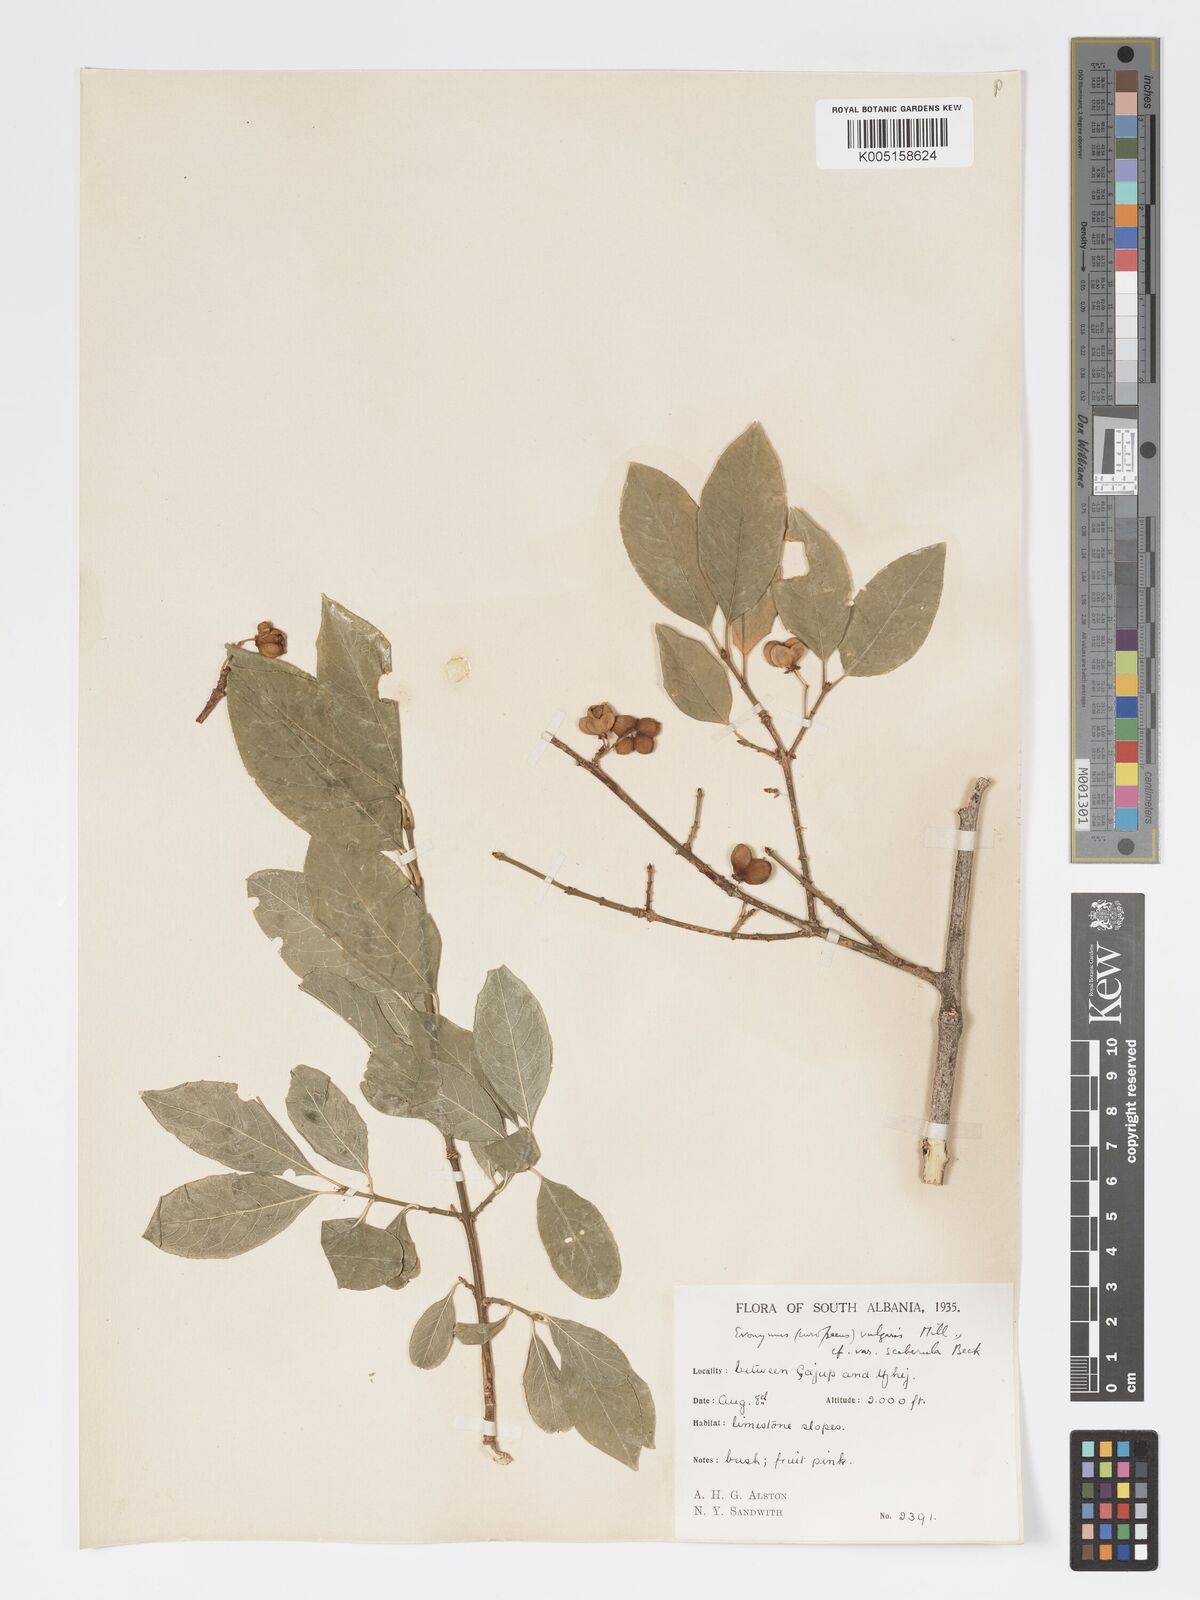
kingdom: Plantae
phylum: Tracheophyta
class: Magnoliopsida
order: Celastrales
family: Celastraceae
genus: Euonymus
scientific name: Euonymus europaeus
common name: Spindle
